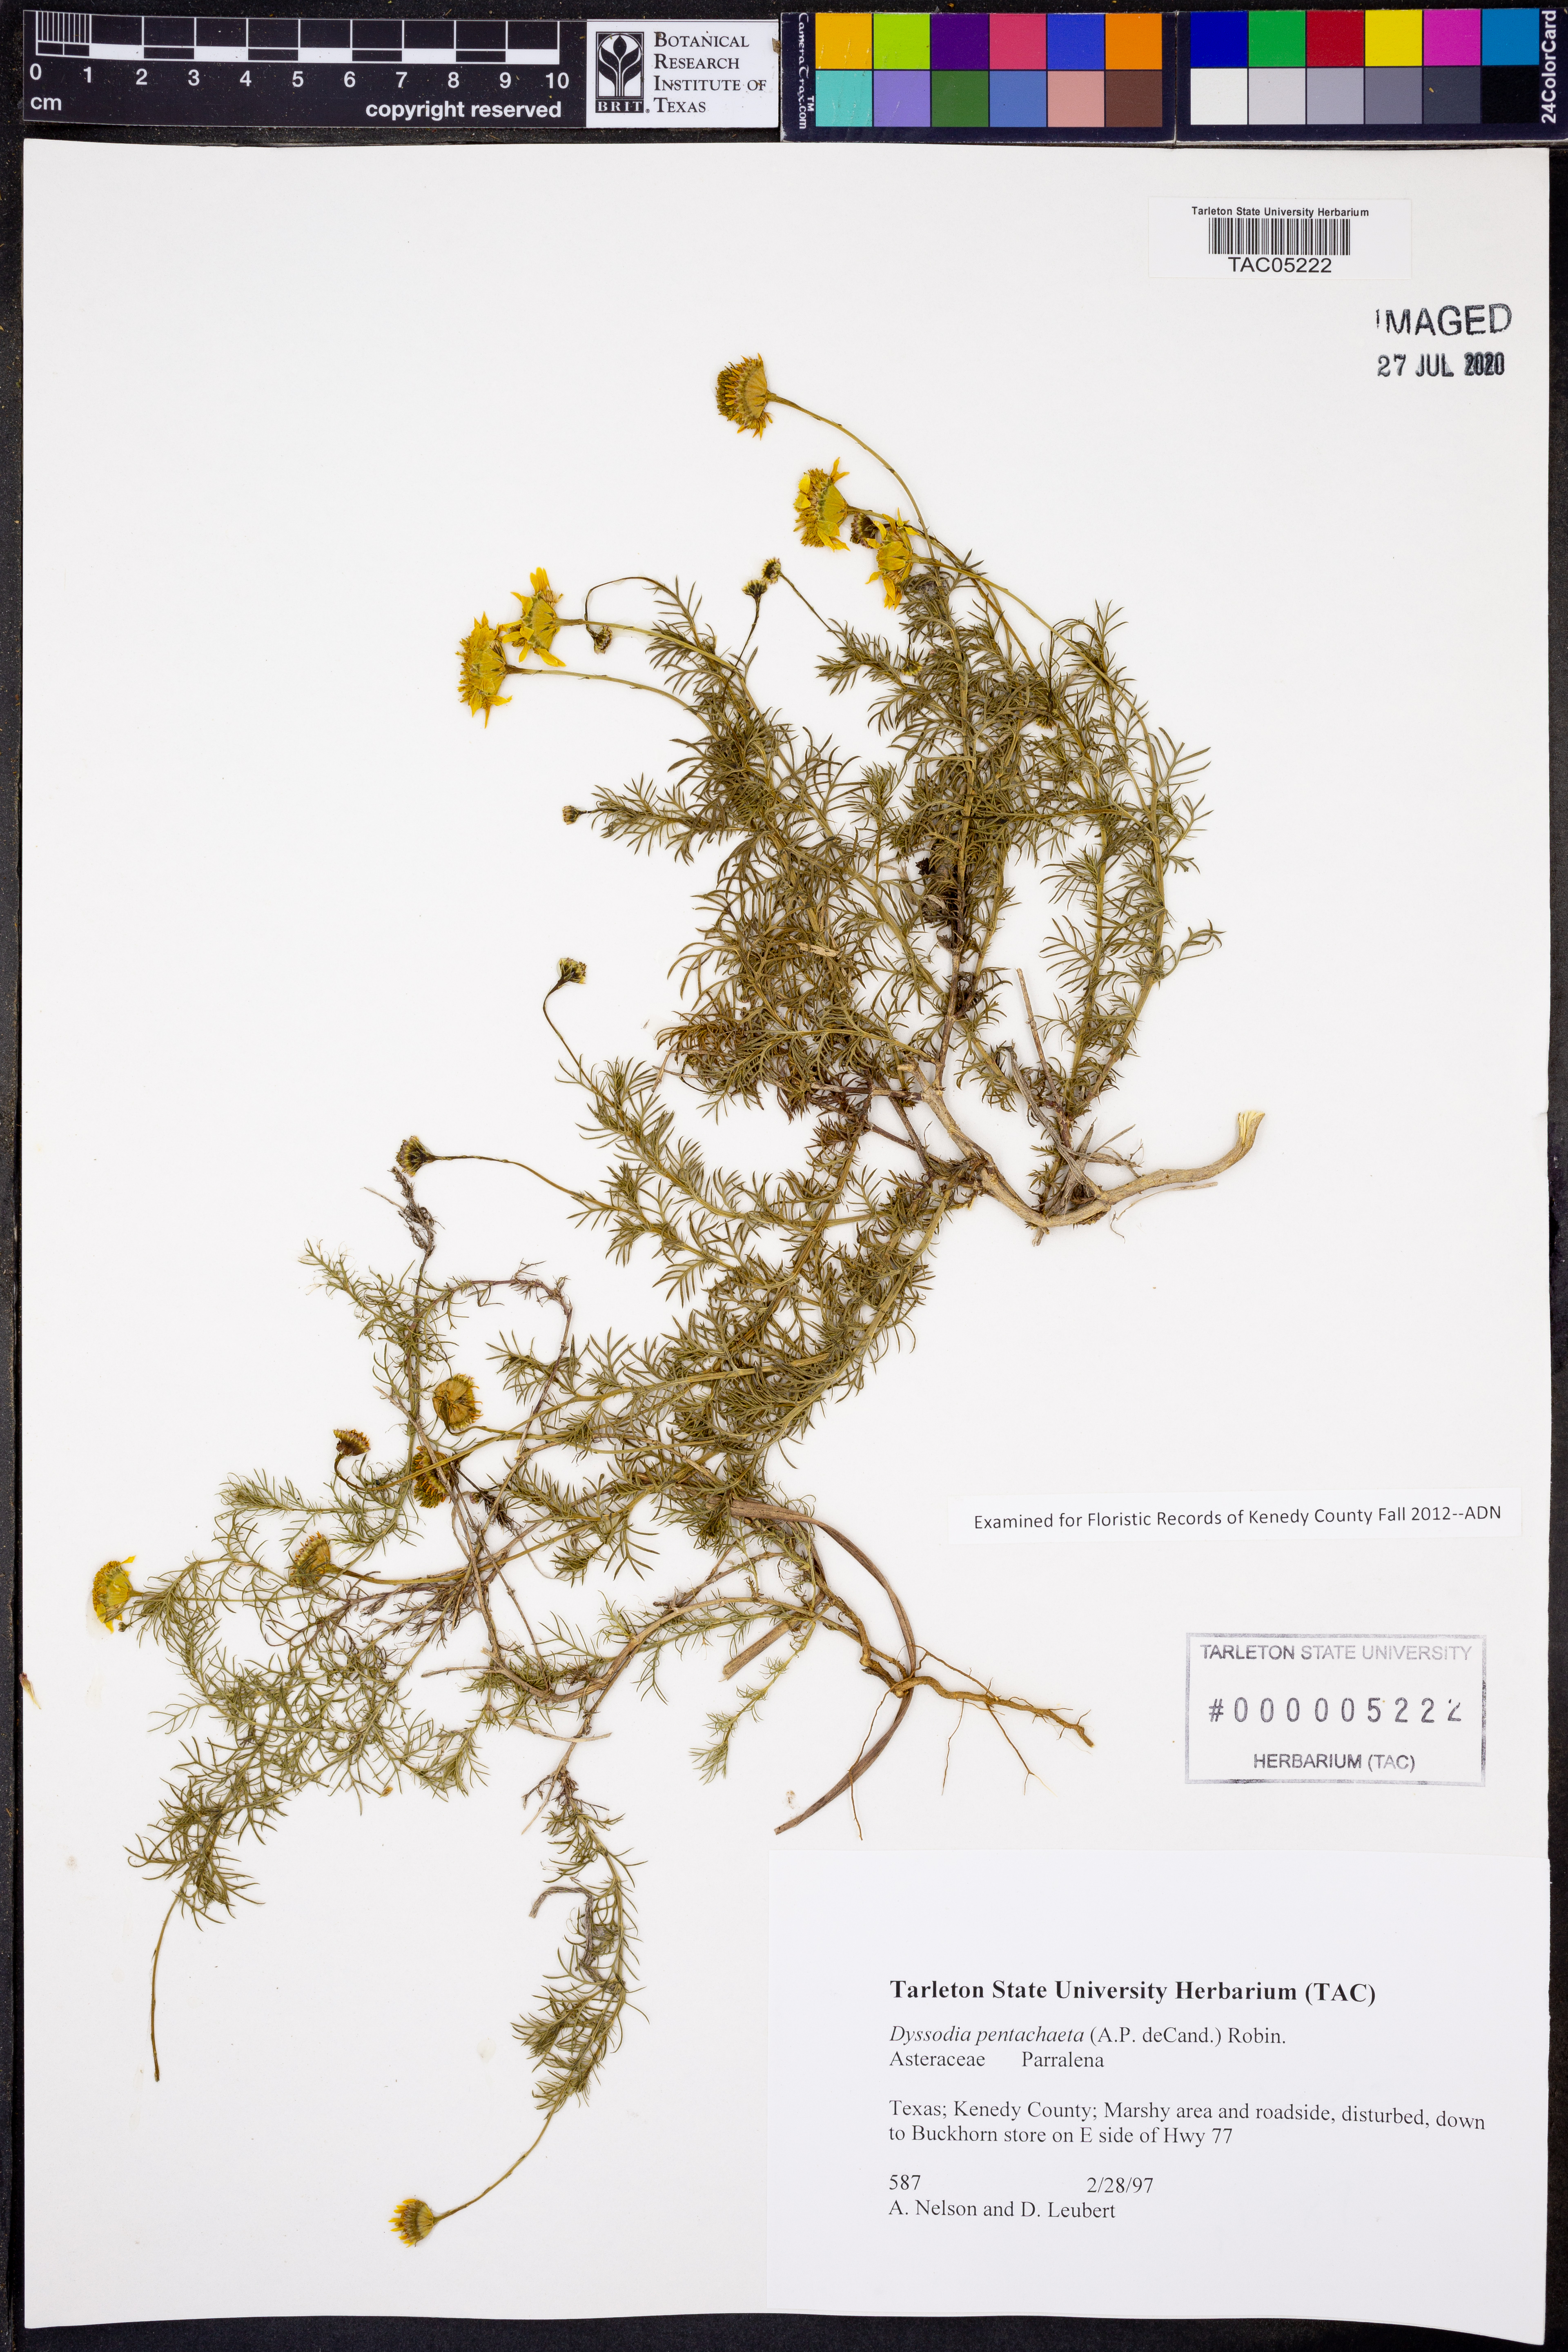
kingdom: Plantae
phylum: Tracheophyta
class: Magnoliopsida
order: Asterales
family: Asteraceae
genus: Thymophylla
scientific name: Thymophylla pentachaeta
